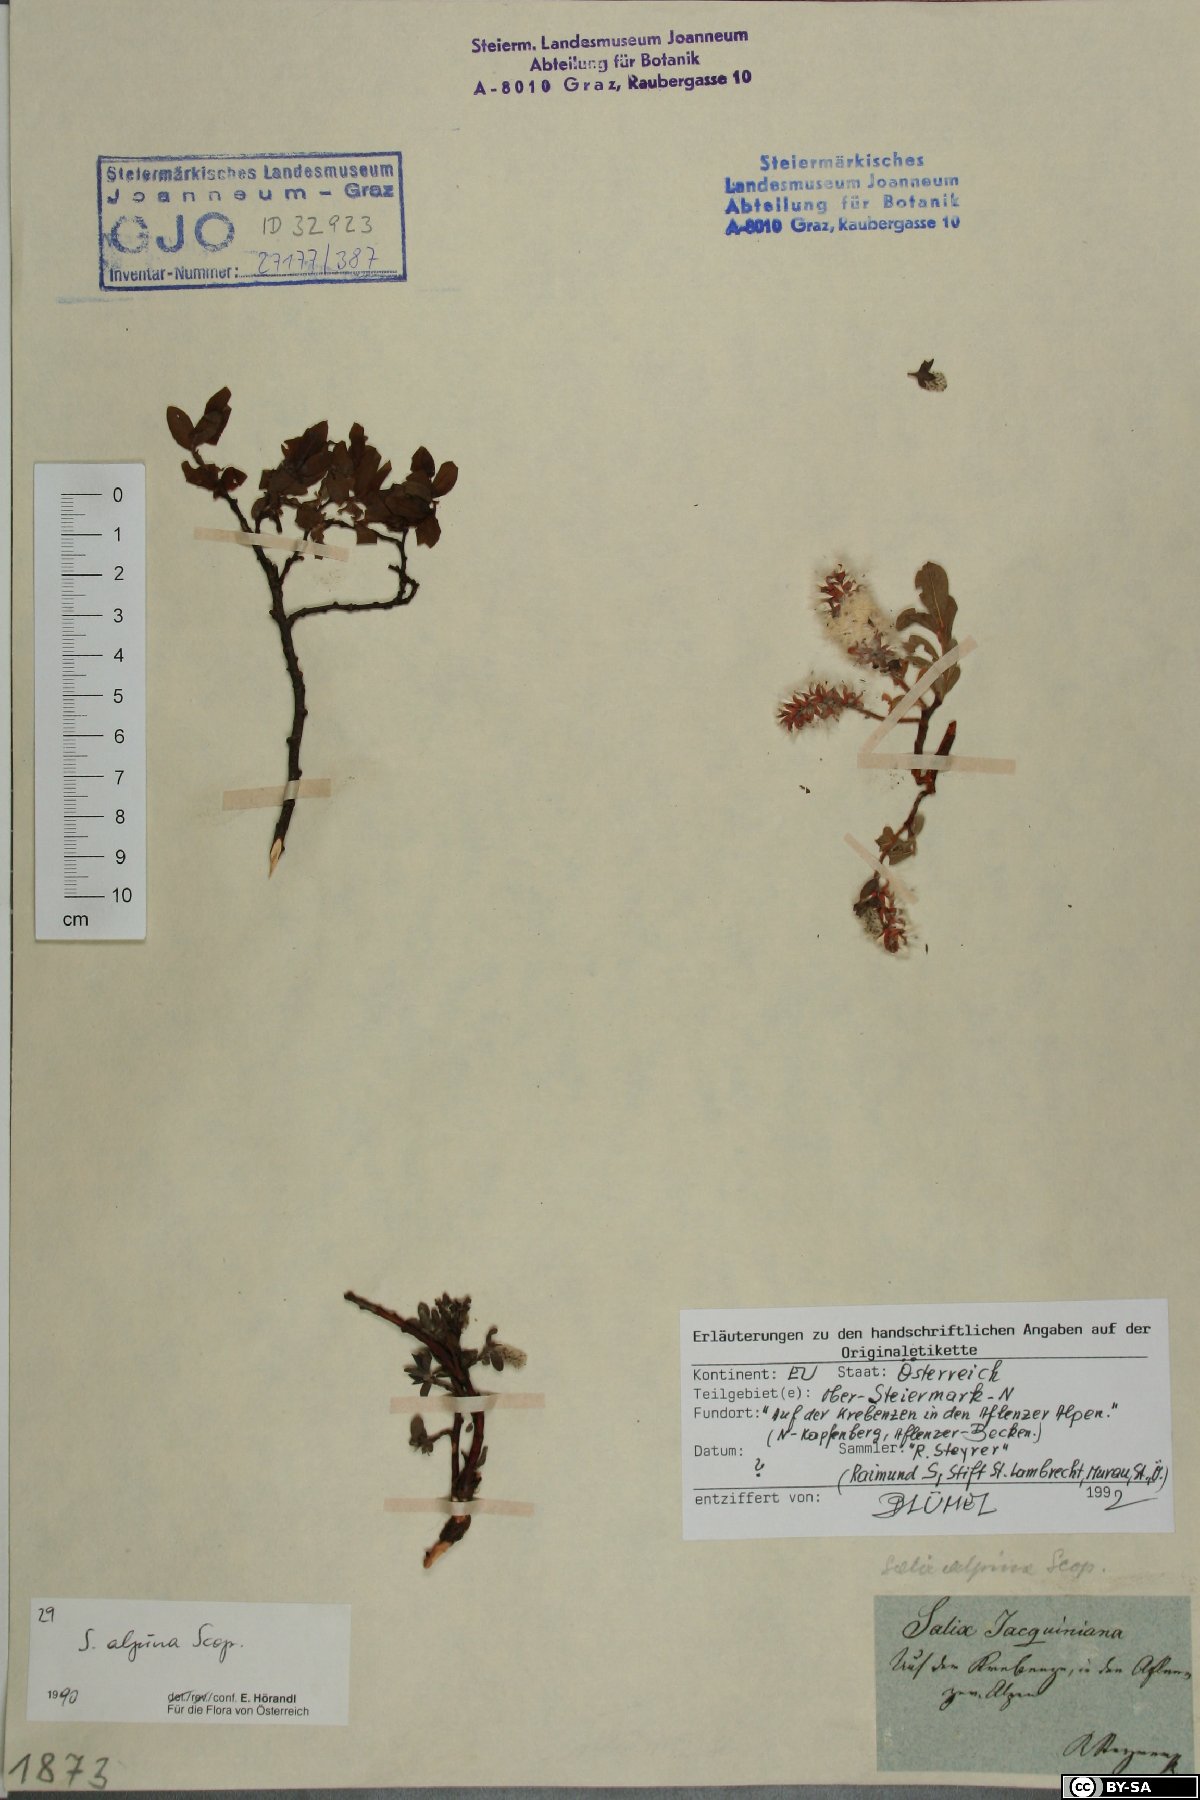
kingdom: Plantae
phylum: Tracheophyta
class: Magnoliopsida
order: Malpighiales
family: Salicaceae
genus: Salix
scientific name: Salix alpina
